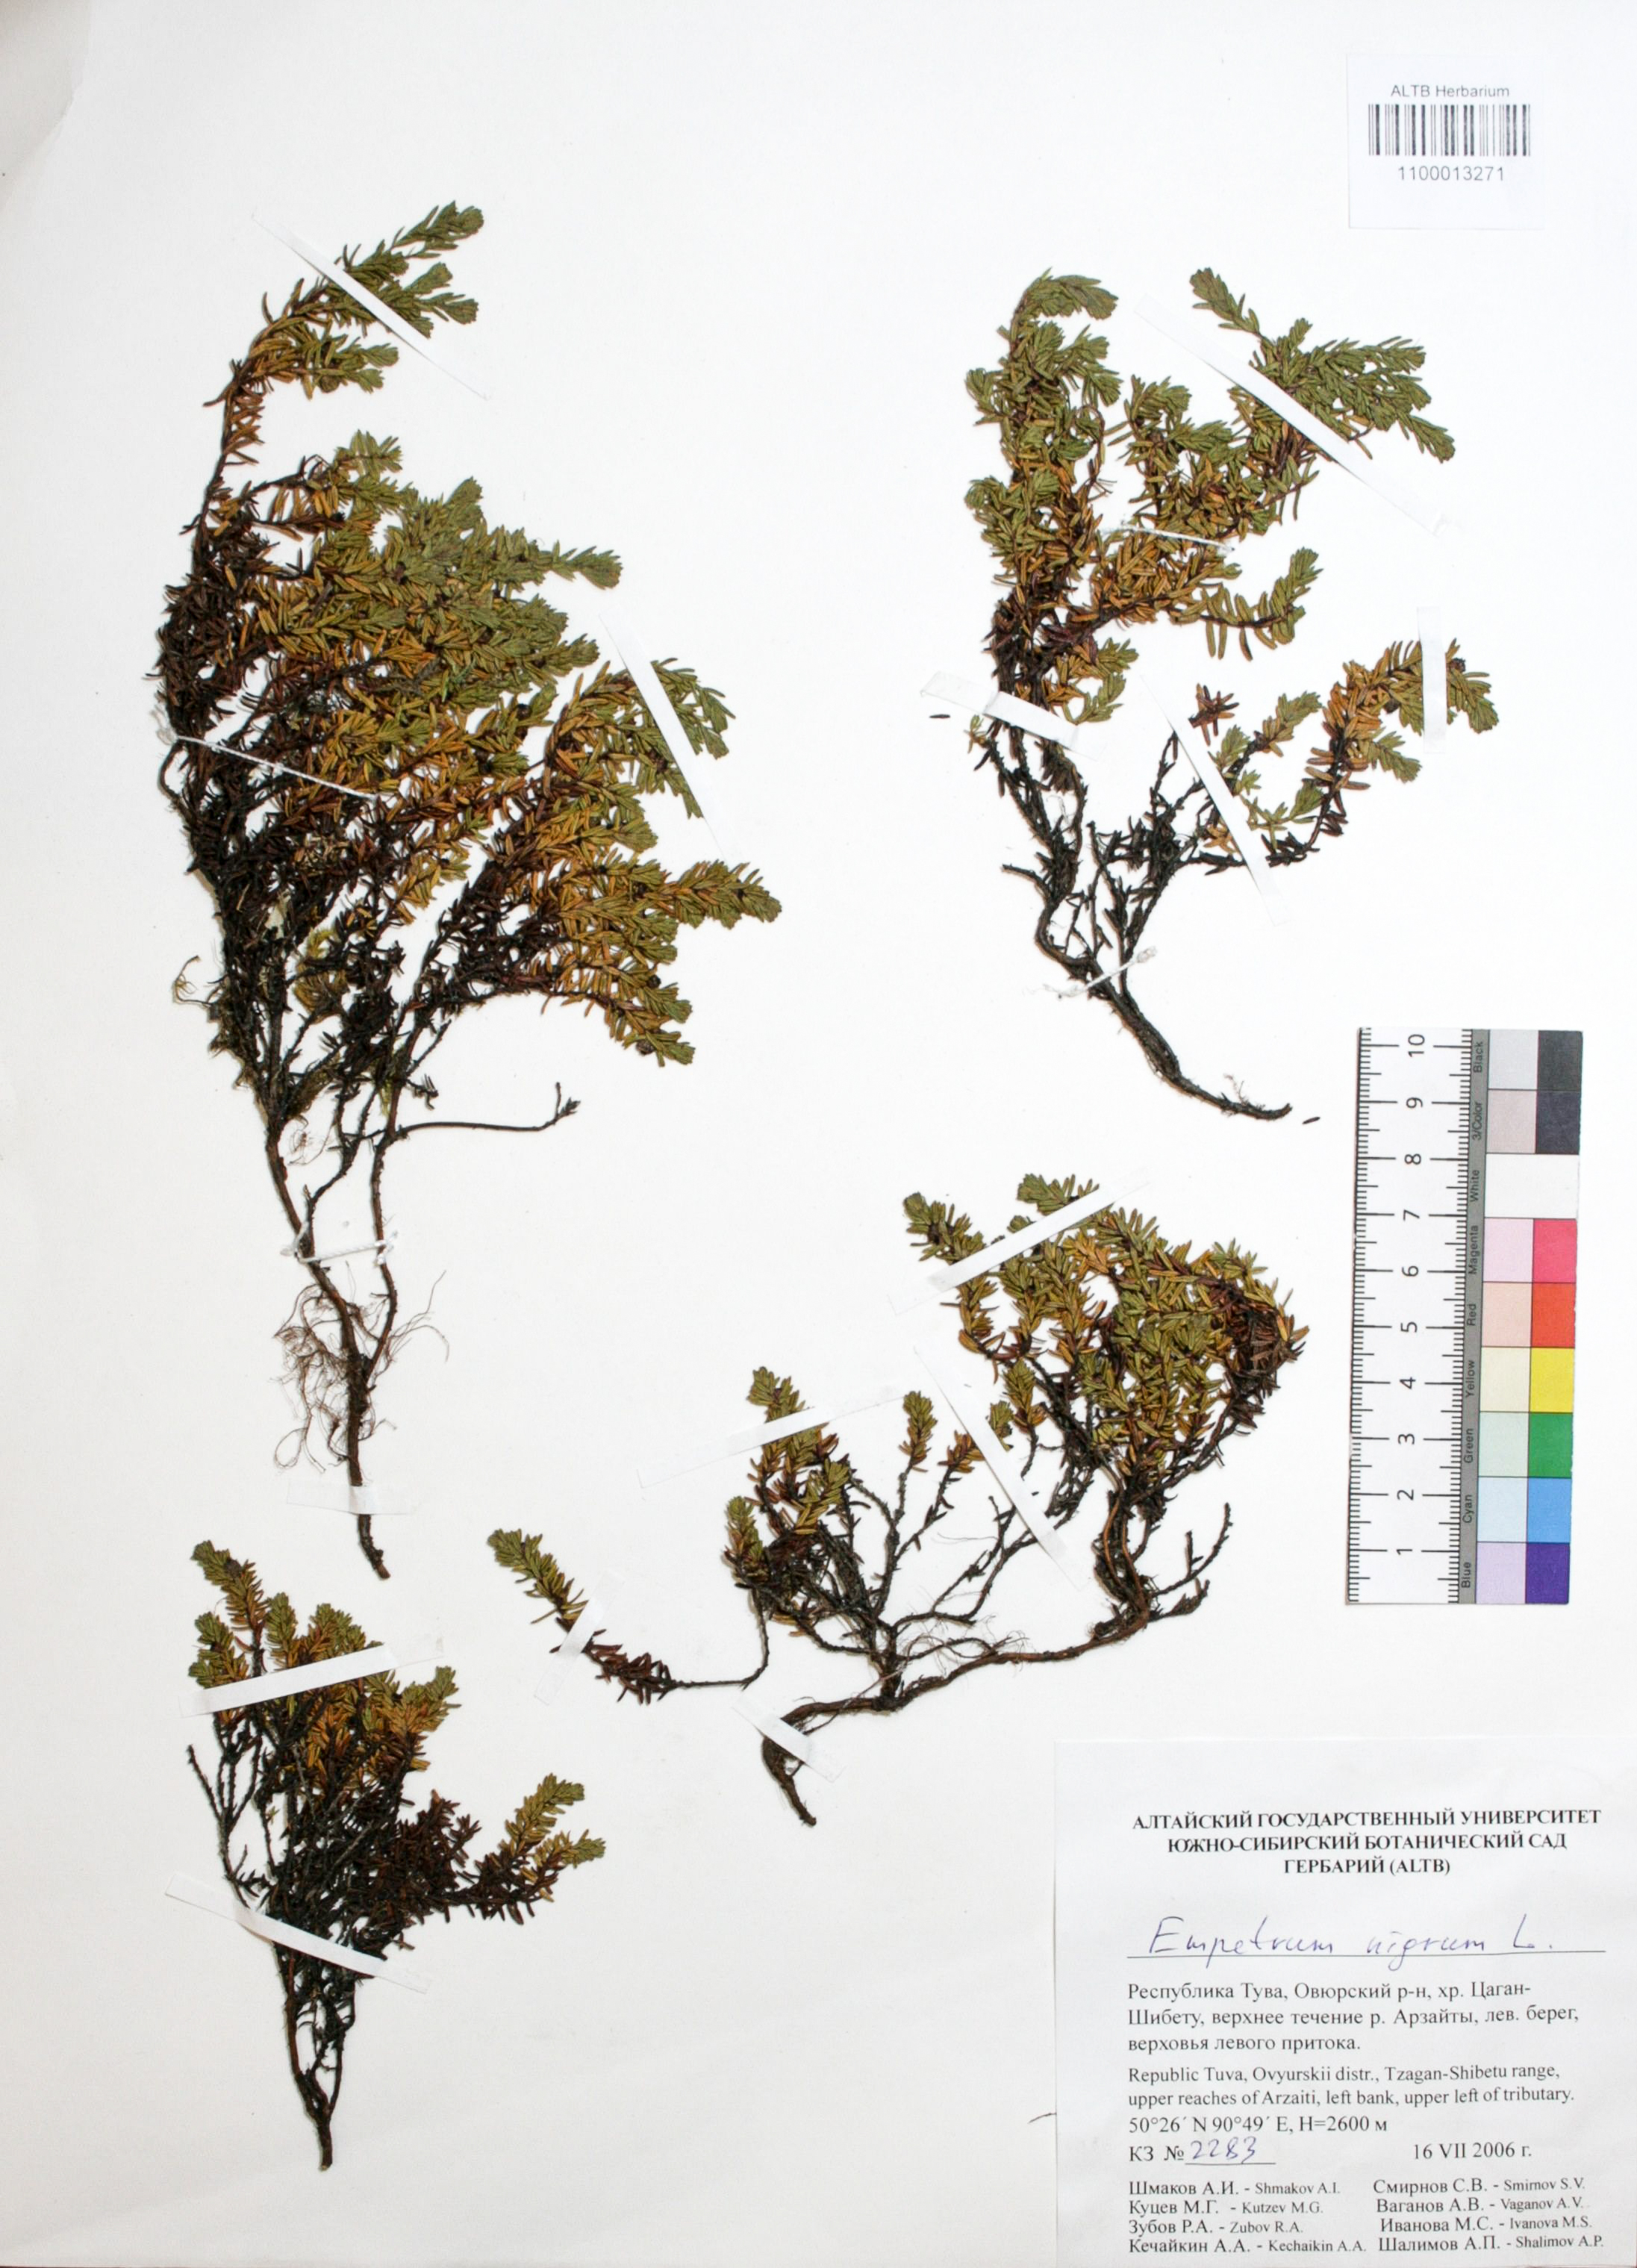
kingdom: Plantae
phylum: Tracheophyta
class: Magnoliopsida
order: Ericales
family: Ericaceae
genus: Empetrum
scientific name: Empetrum nigrum
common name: Black crowberry
